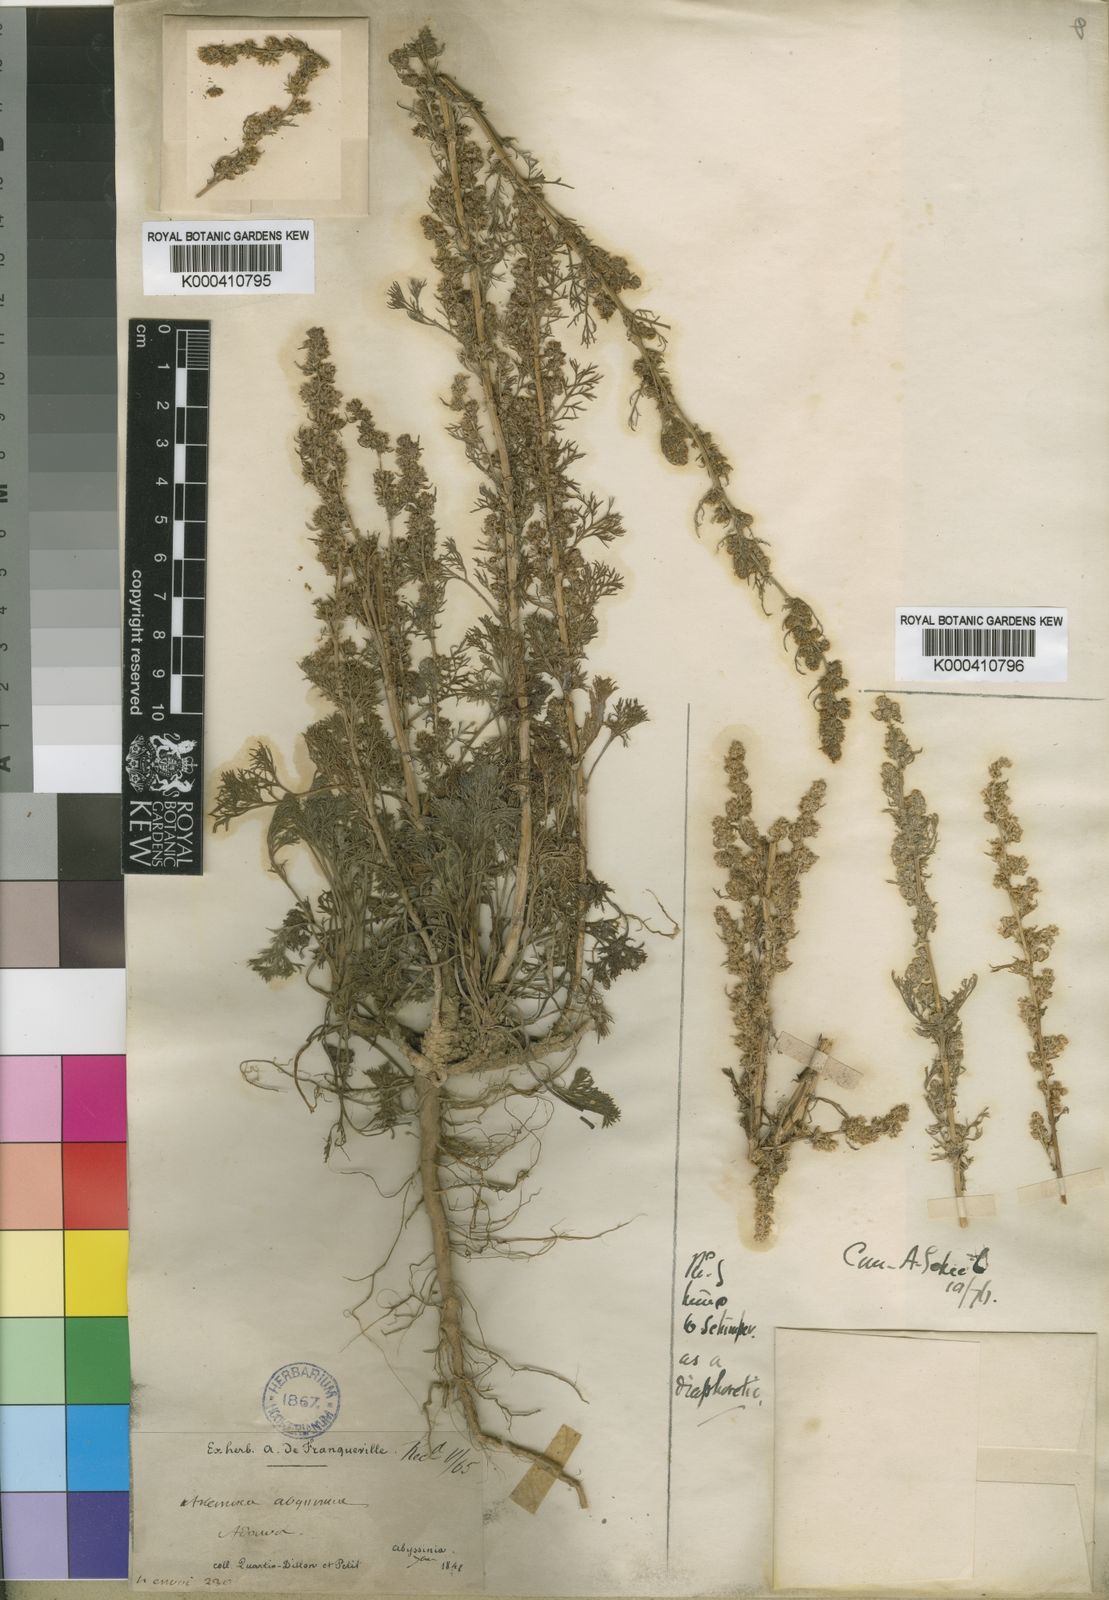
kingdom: Plantae
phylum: Tracheophyta
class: Magnoliopsida
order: Asterales
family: Asteraceae
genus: Artemisia
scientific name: Artemisia abyssinica
